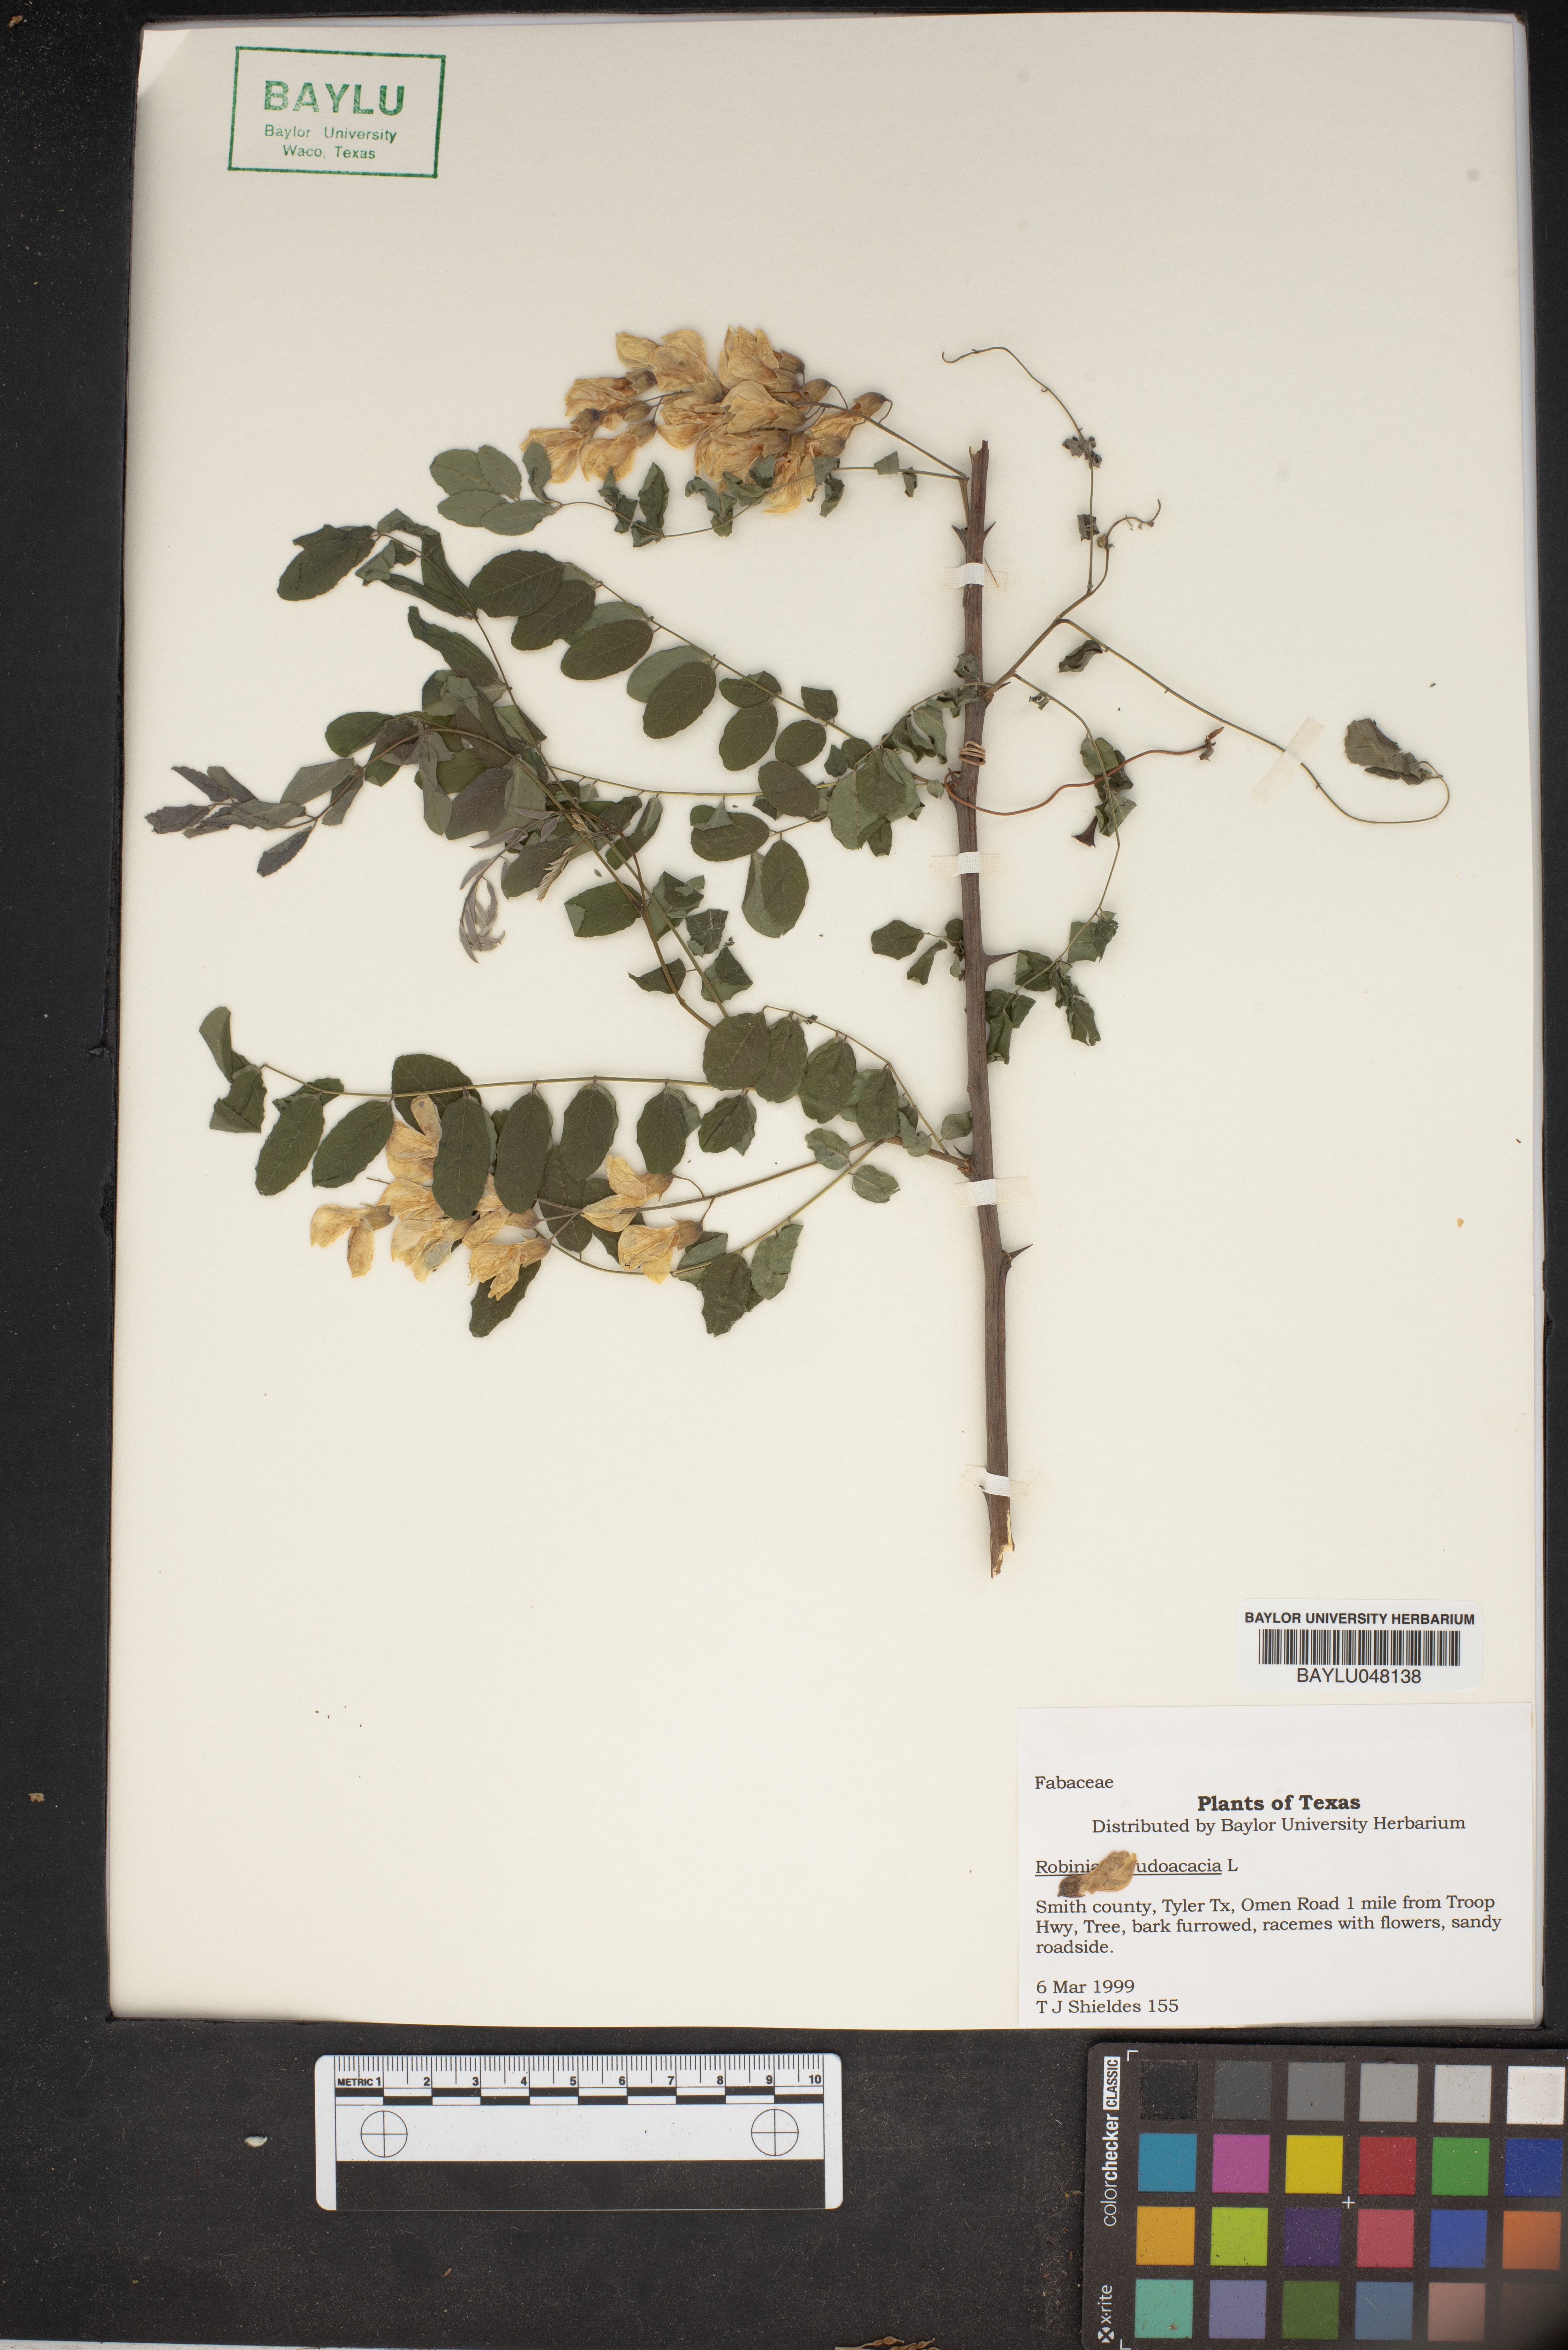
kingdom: Plantae
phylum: Tracheophyta
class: Magnoliopsida
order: Fabales
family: Fabaceae
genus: Robinia
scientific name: Robinia pseudoacacia
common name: Black locust
